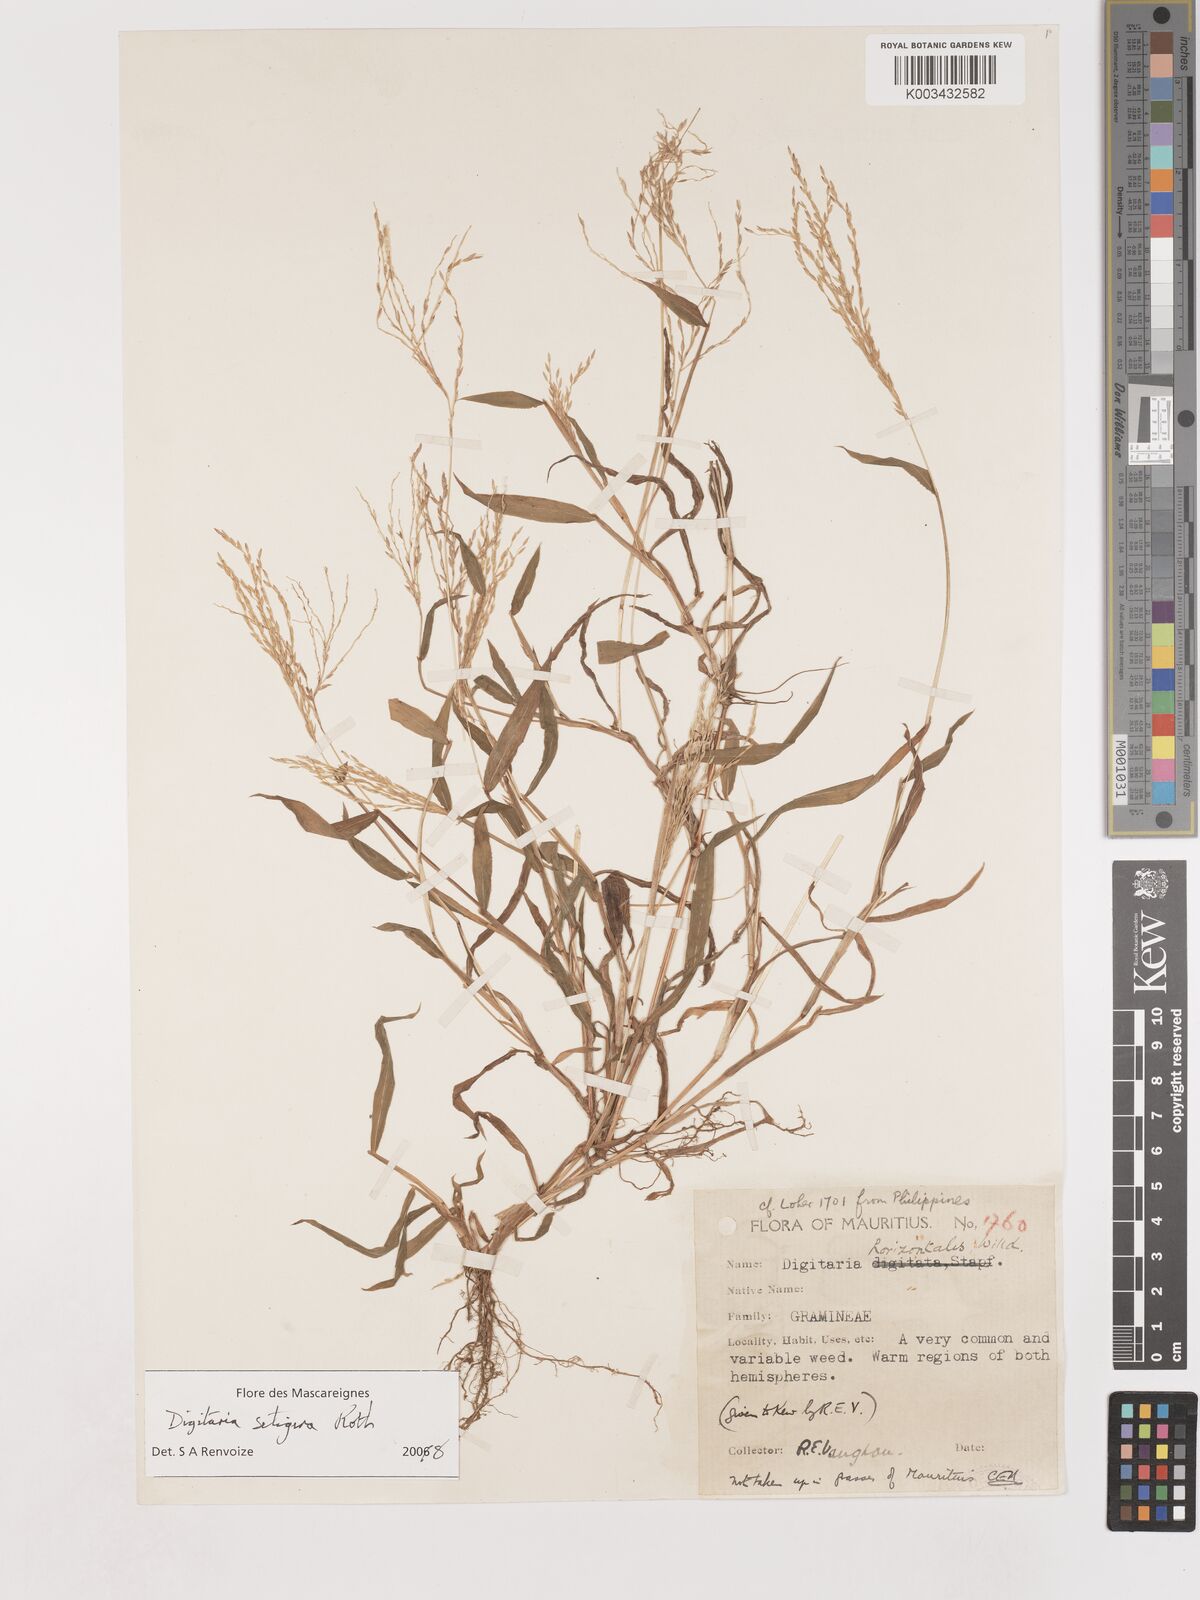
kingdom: Plantae
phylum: Tracheophyta
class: Liliopsida
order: Poales
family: Poaceae
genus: Digitaria
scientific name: Digitaria setigera
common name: East indian crabgrass
